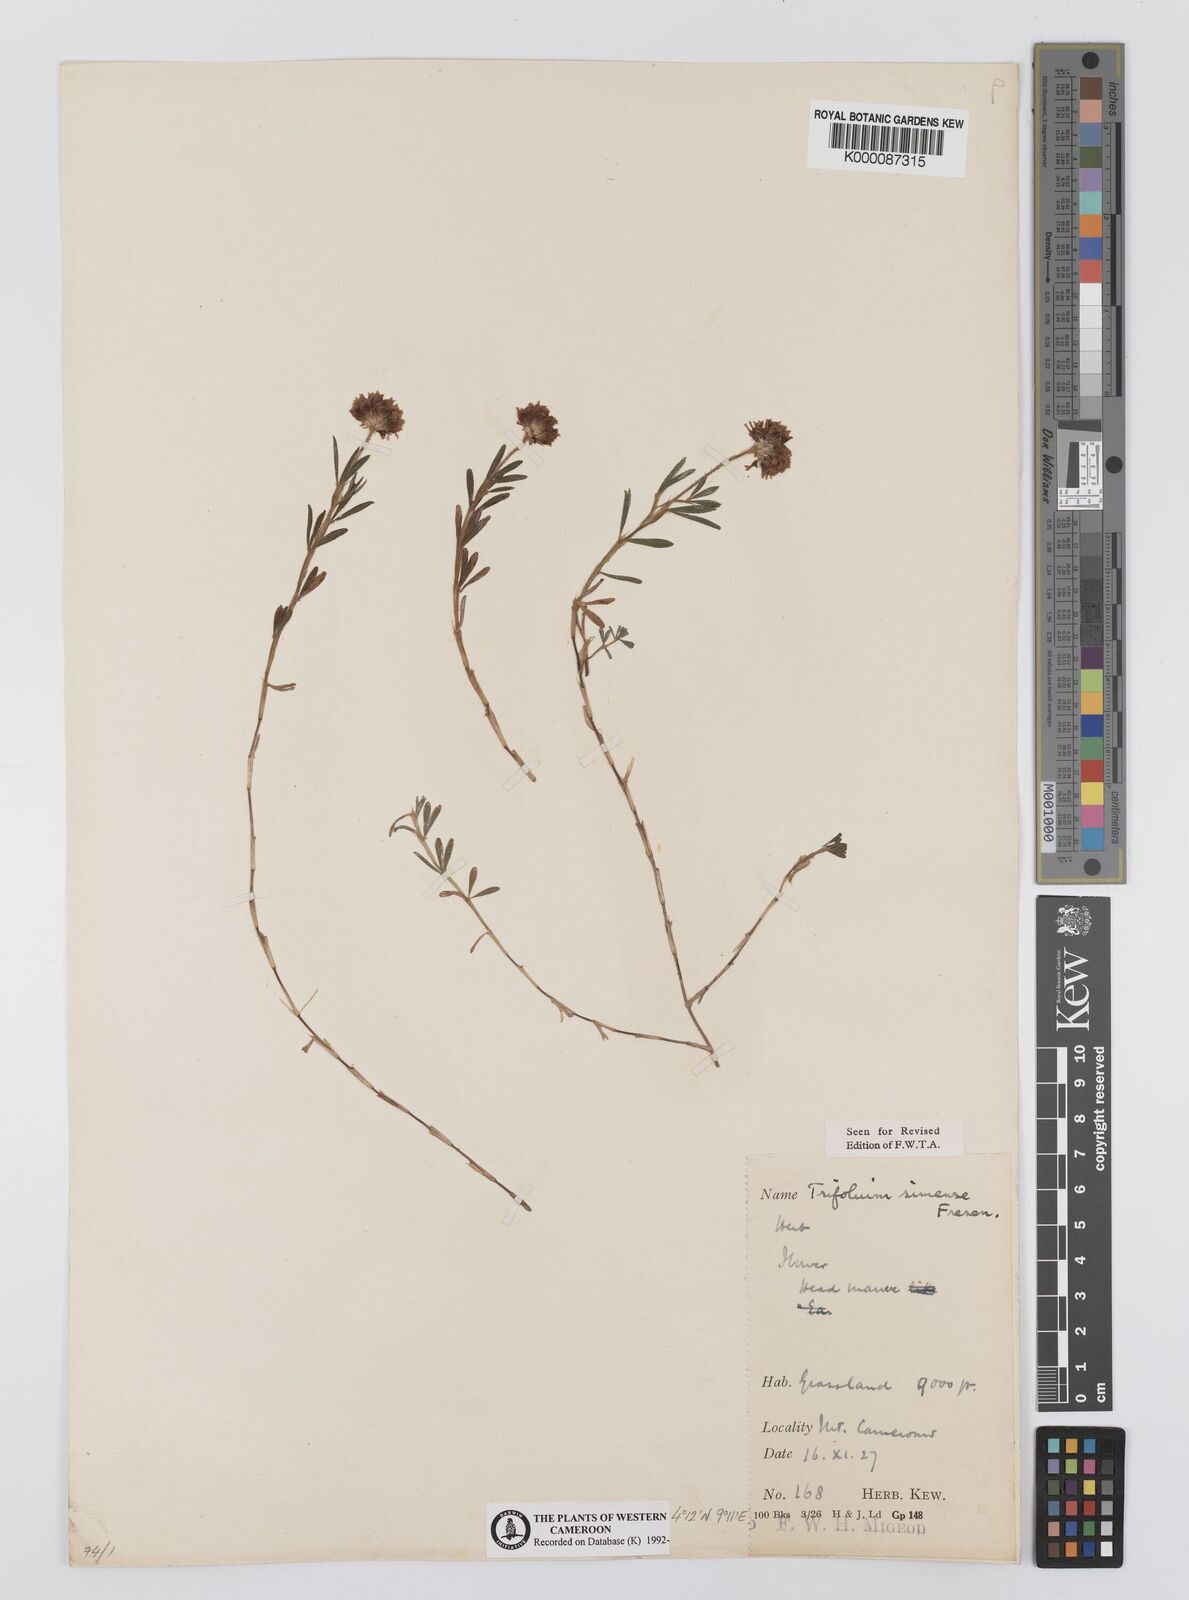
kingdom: Plantae
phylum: Tracheophyta
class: Magnoliopsida
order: Fabales
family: Fabaceae
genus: Trifolium
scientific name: Trifolium simense
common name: Simen clover
